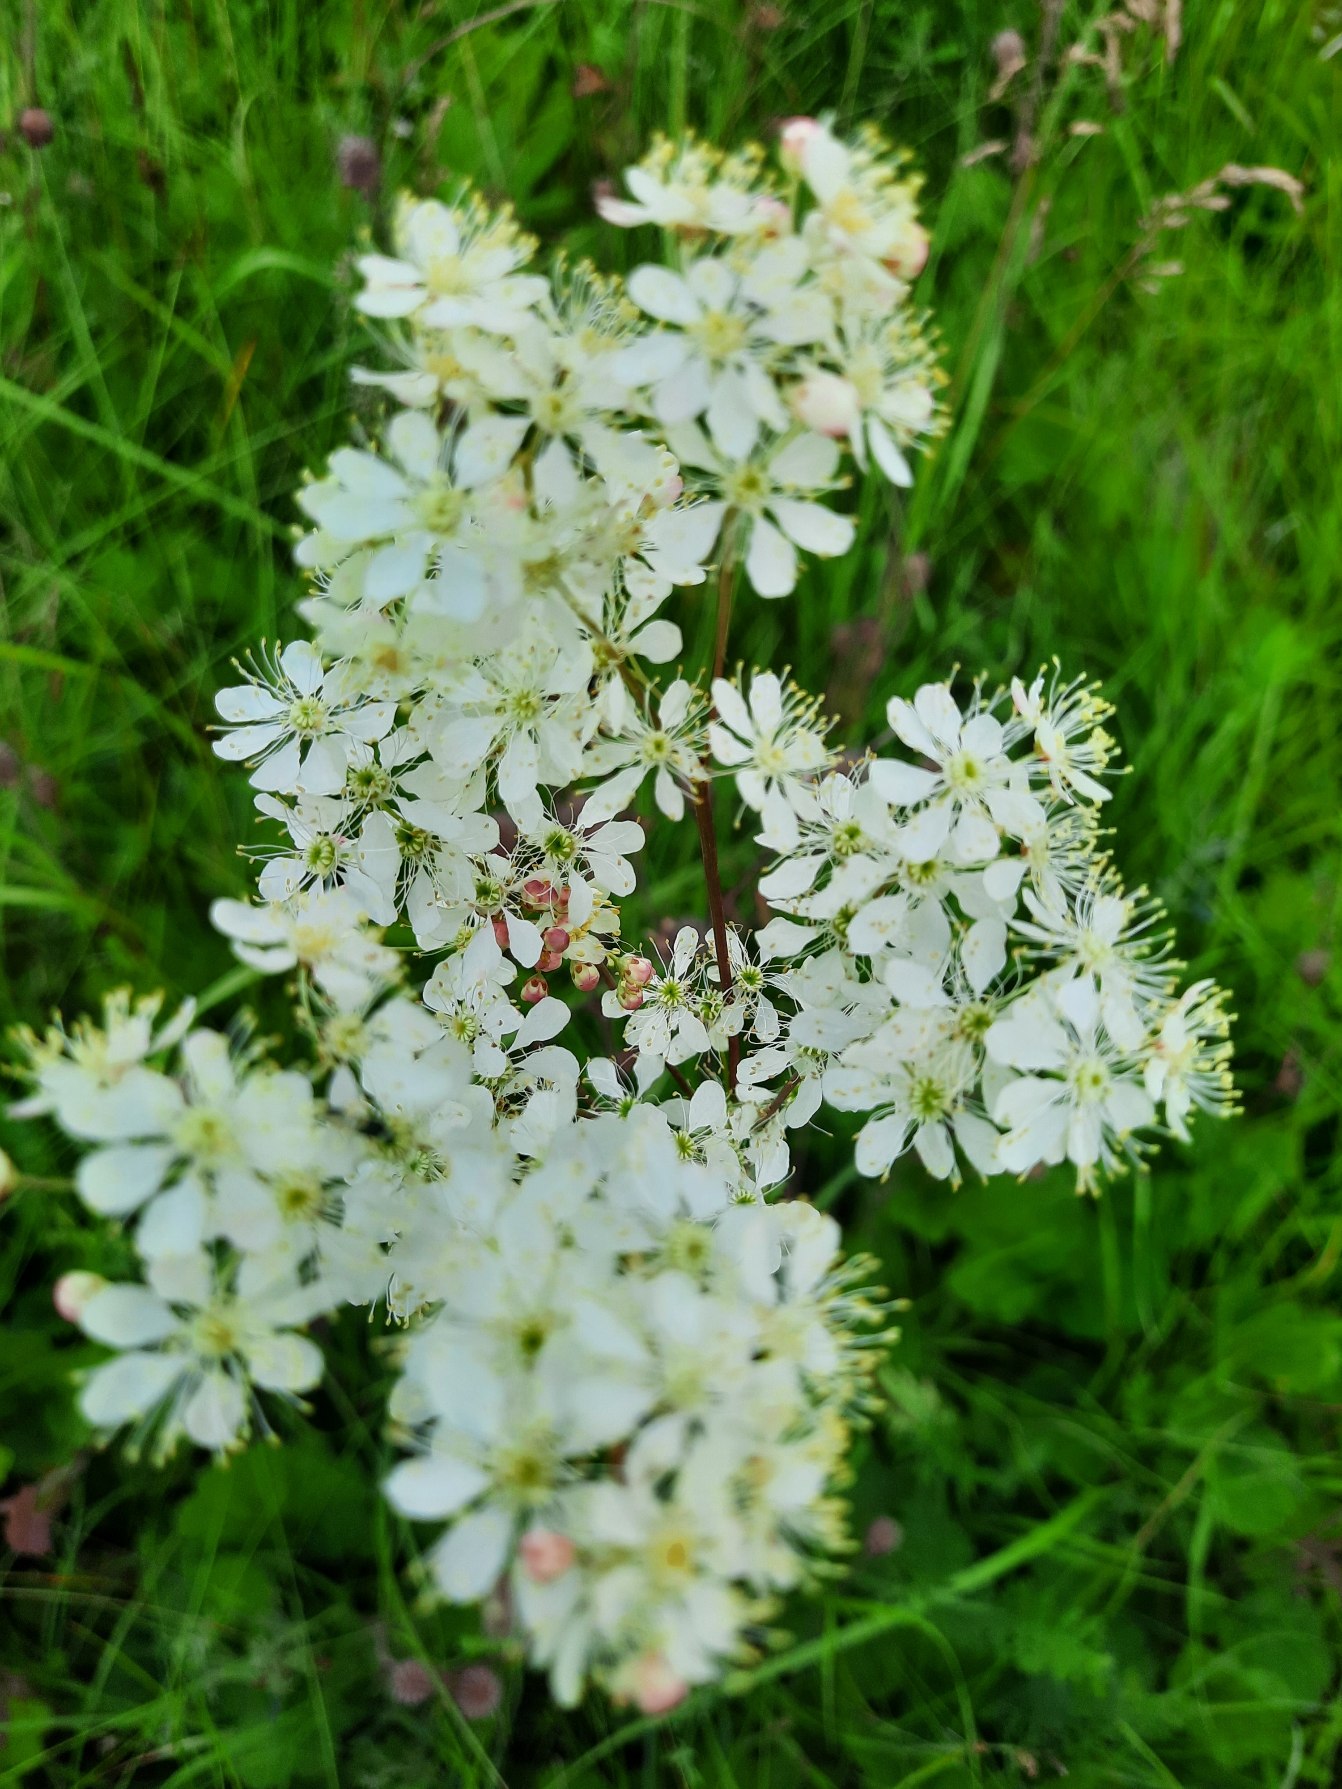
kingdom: Plantae
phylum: Tracheophyta
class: Magnoliopsida
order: Rosales
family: Rosaceae
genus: Filipendula
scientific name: Filipendula vulgaris
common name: Knoldet mjødurt
